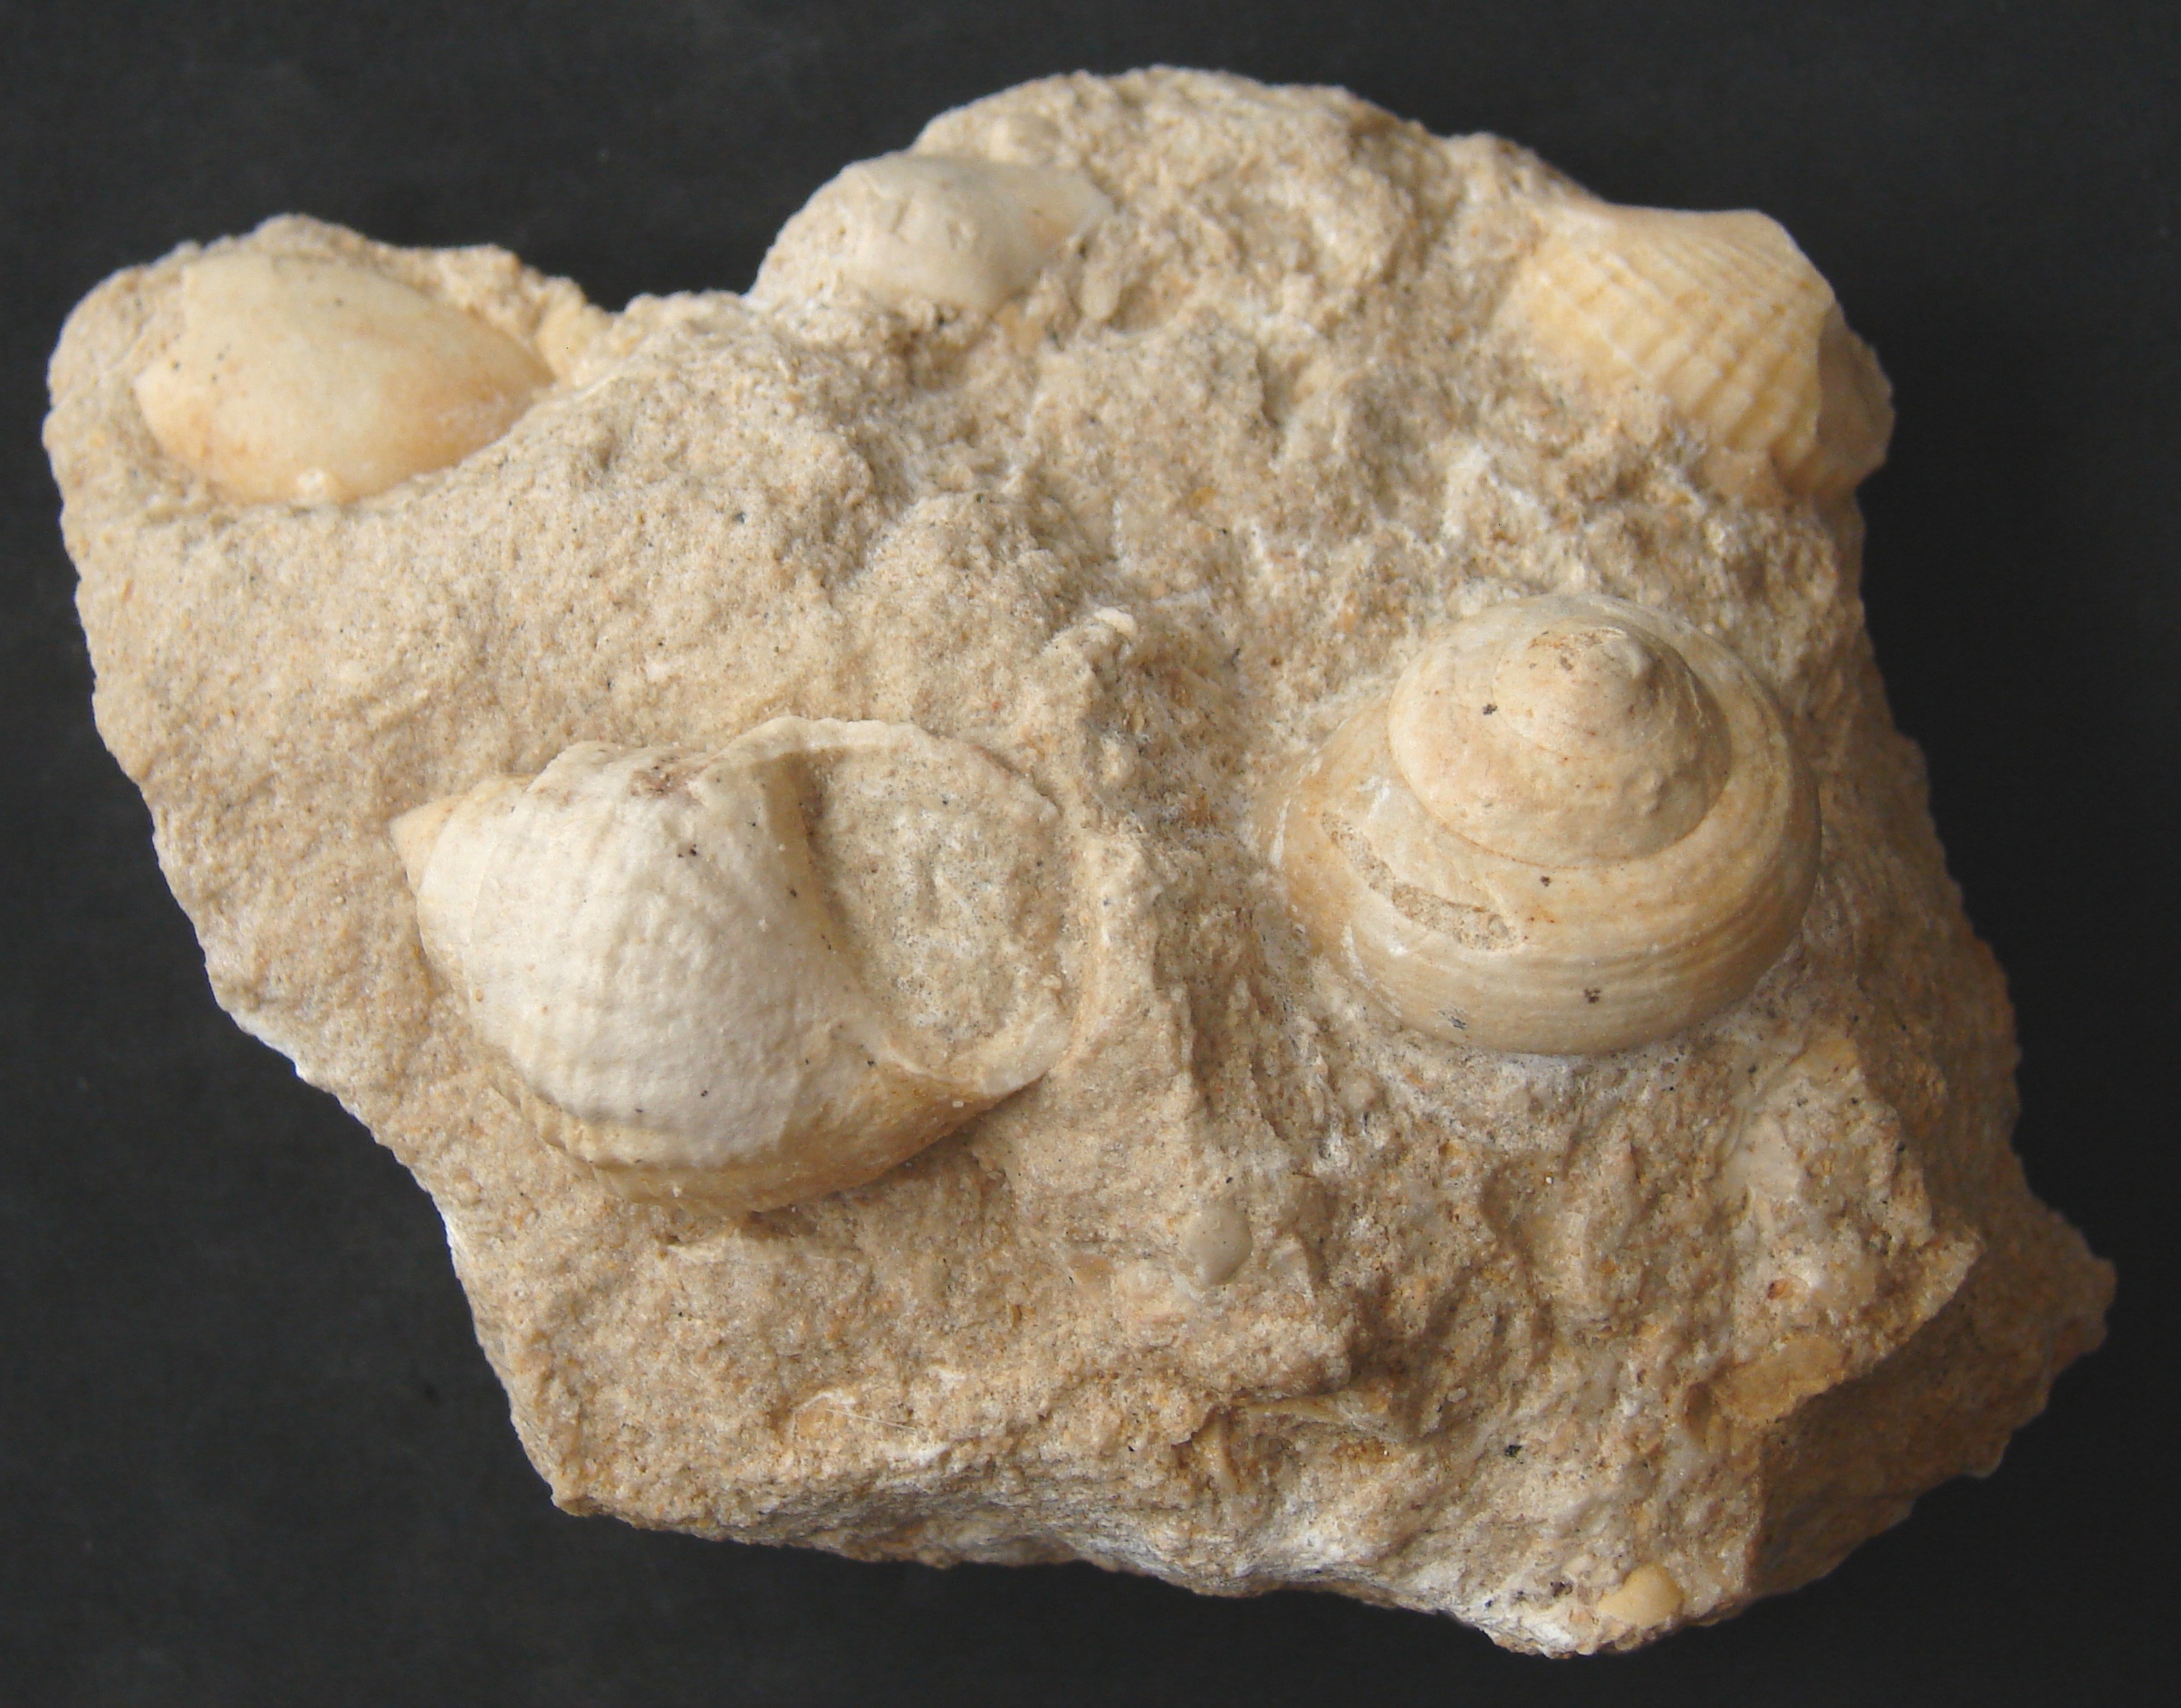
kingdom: Animalia
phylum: Mollusca
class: Gastropoda
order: Pleurotomariida
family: Trochotomidae
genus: Trochotoma
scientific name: Trochotoma vetusta
